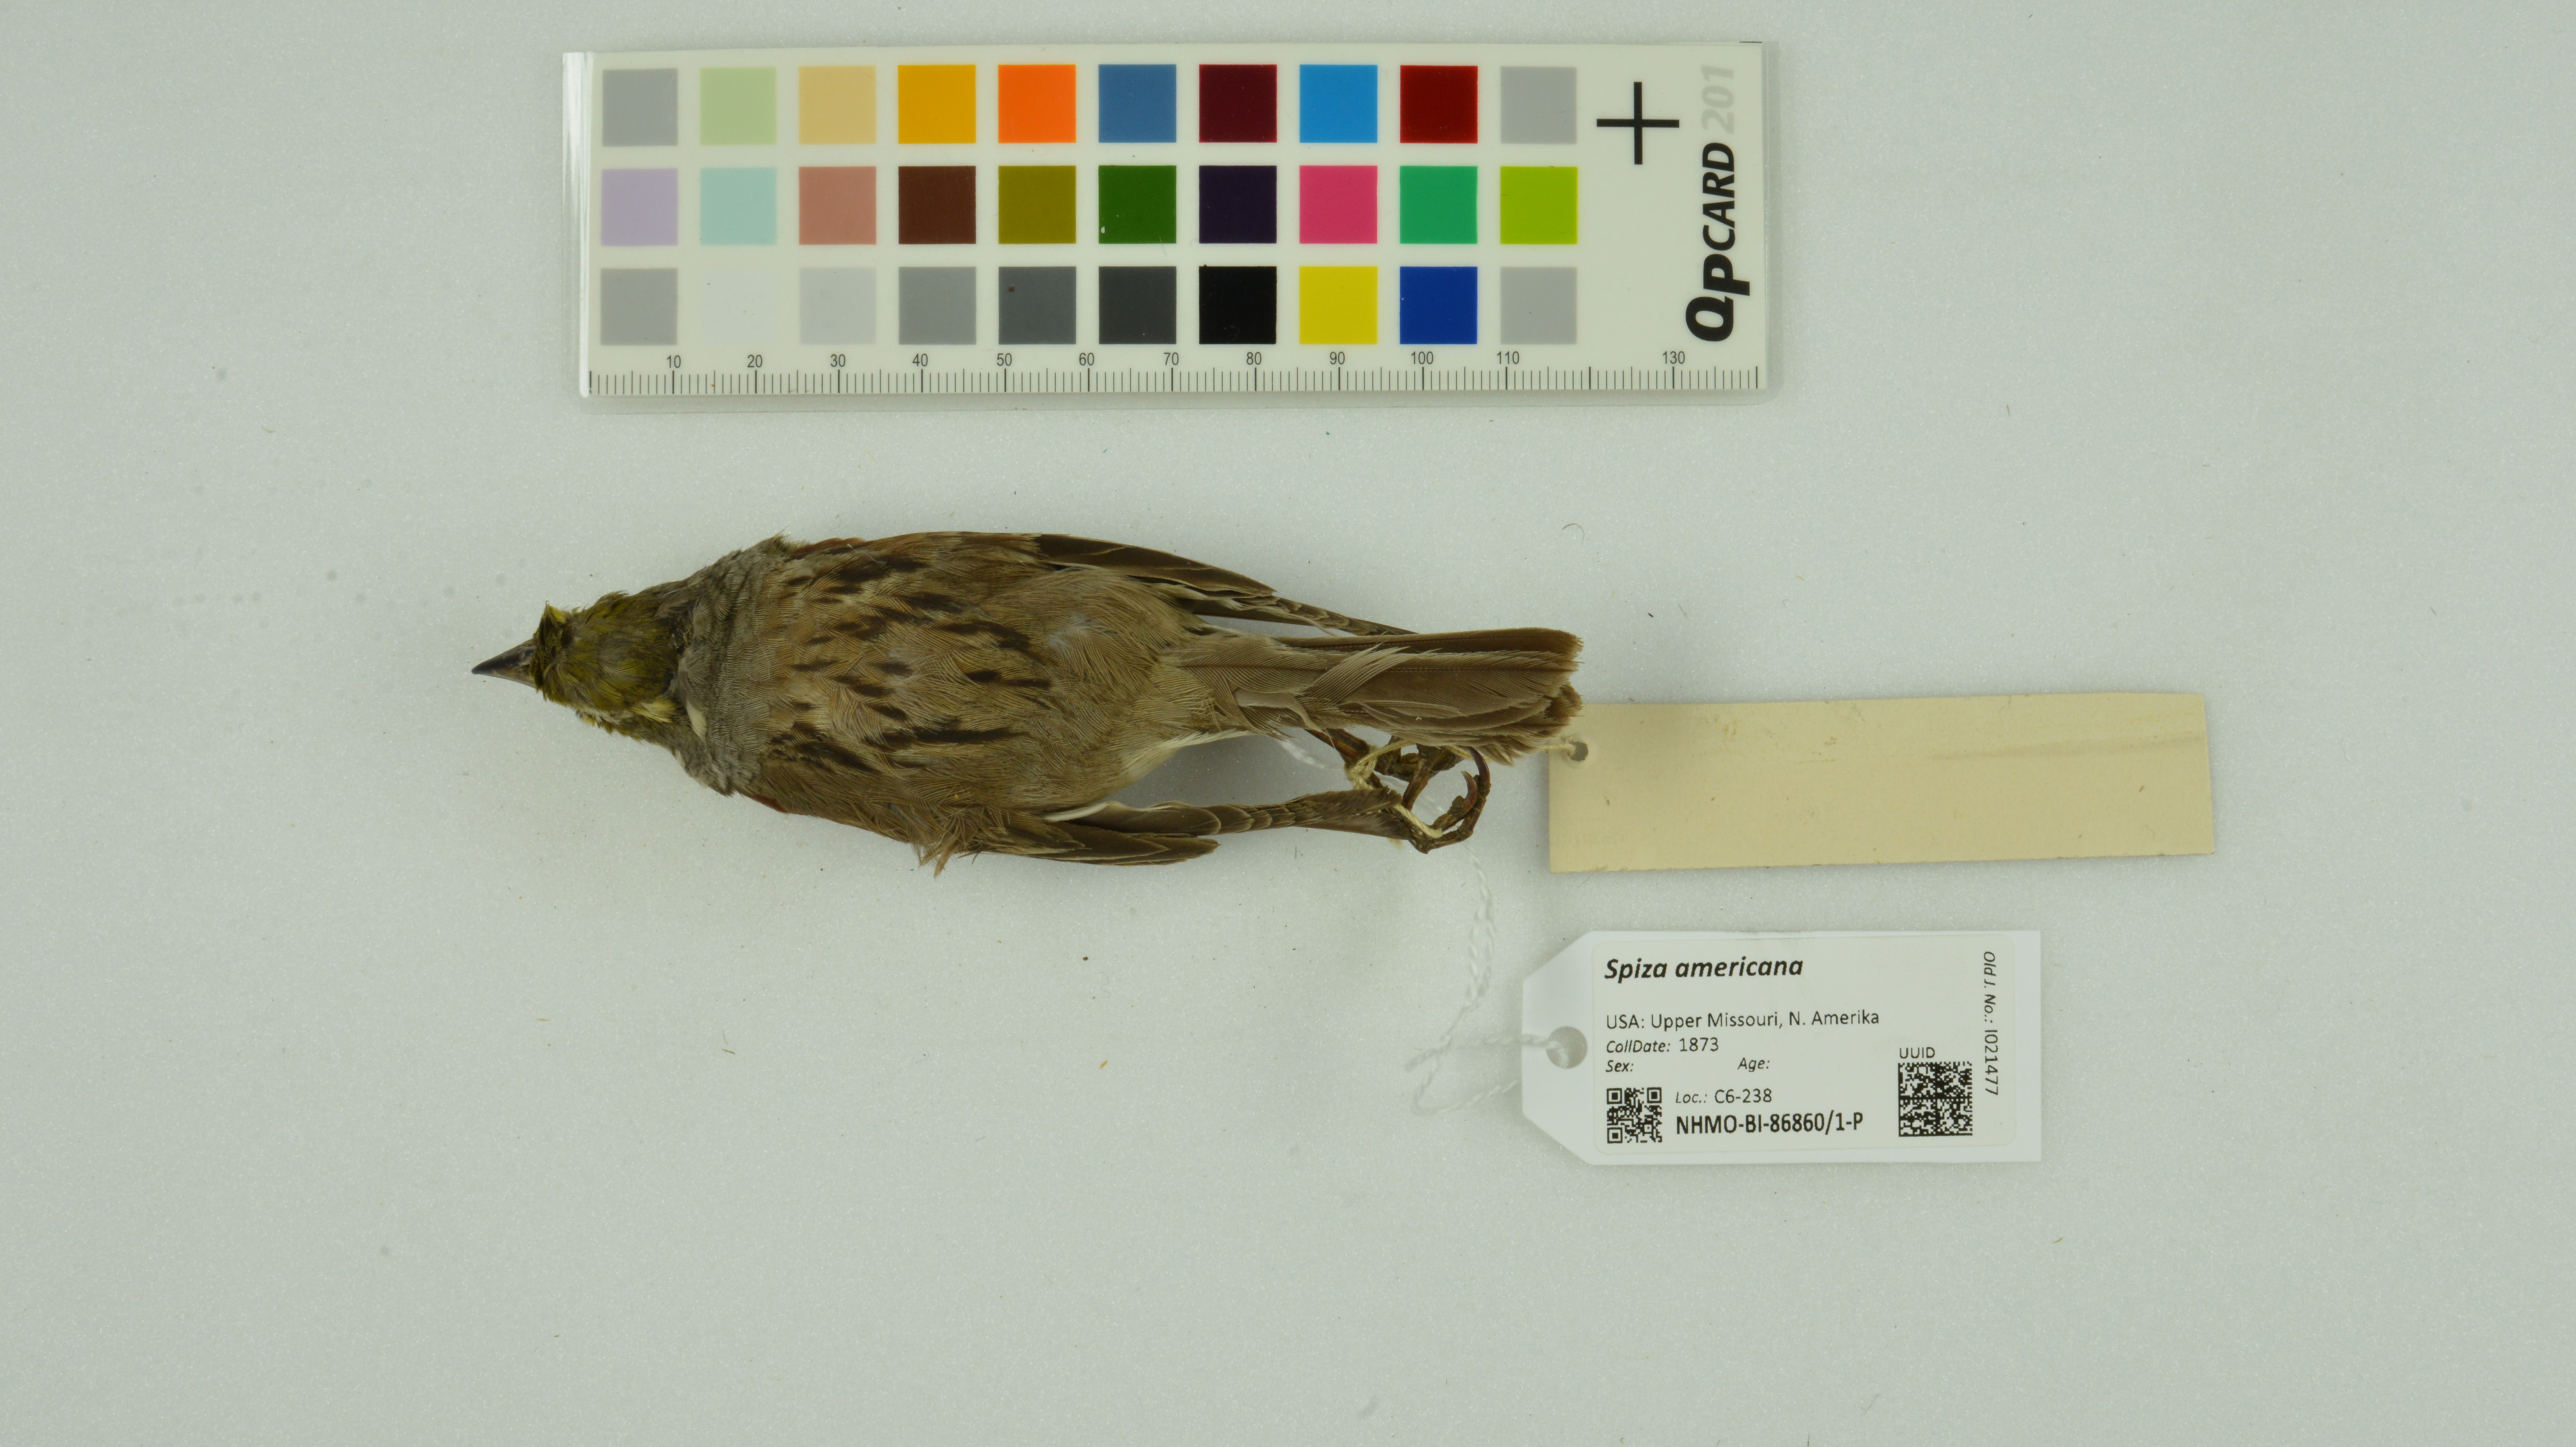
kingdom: Animalia
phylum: Chordata
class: Aves
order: Passeriformes
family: Cardinalidae
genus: Spiza
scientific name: Spiza americana
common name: Dickcissel
